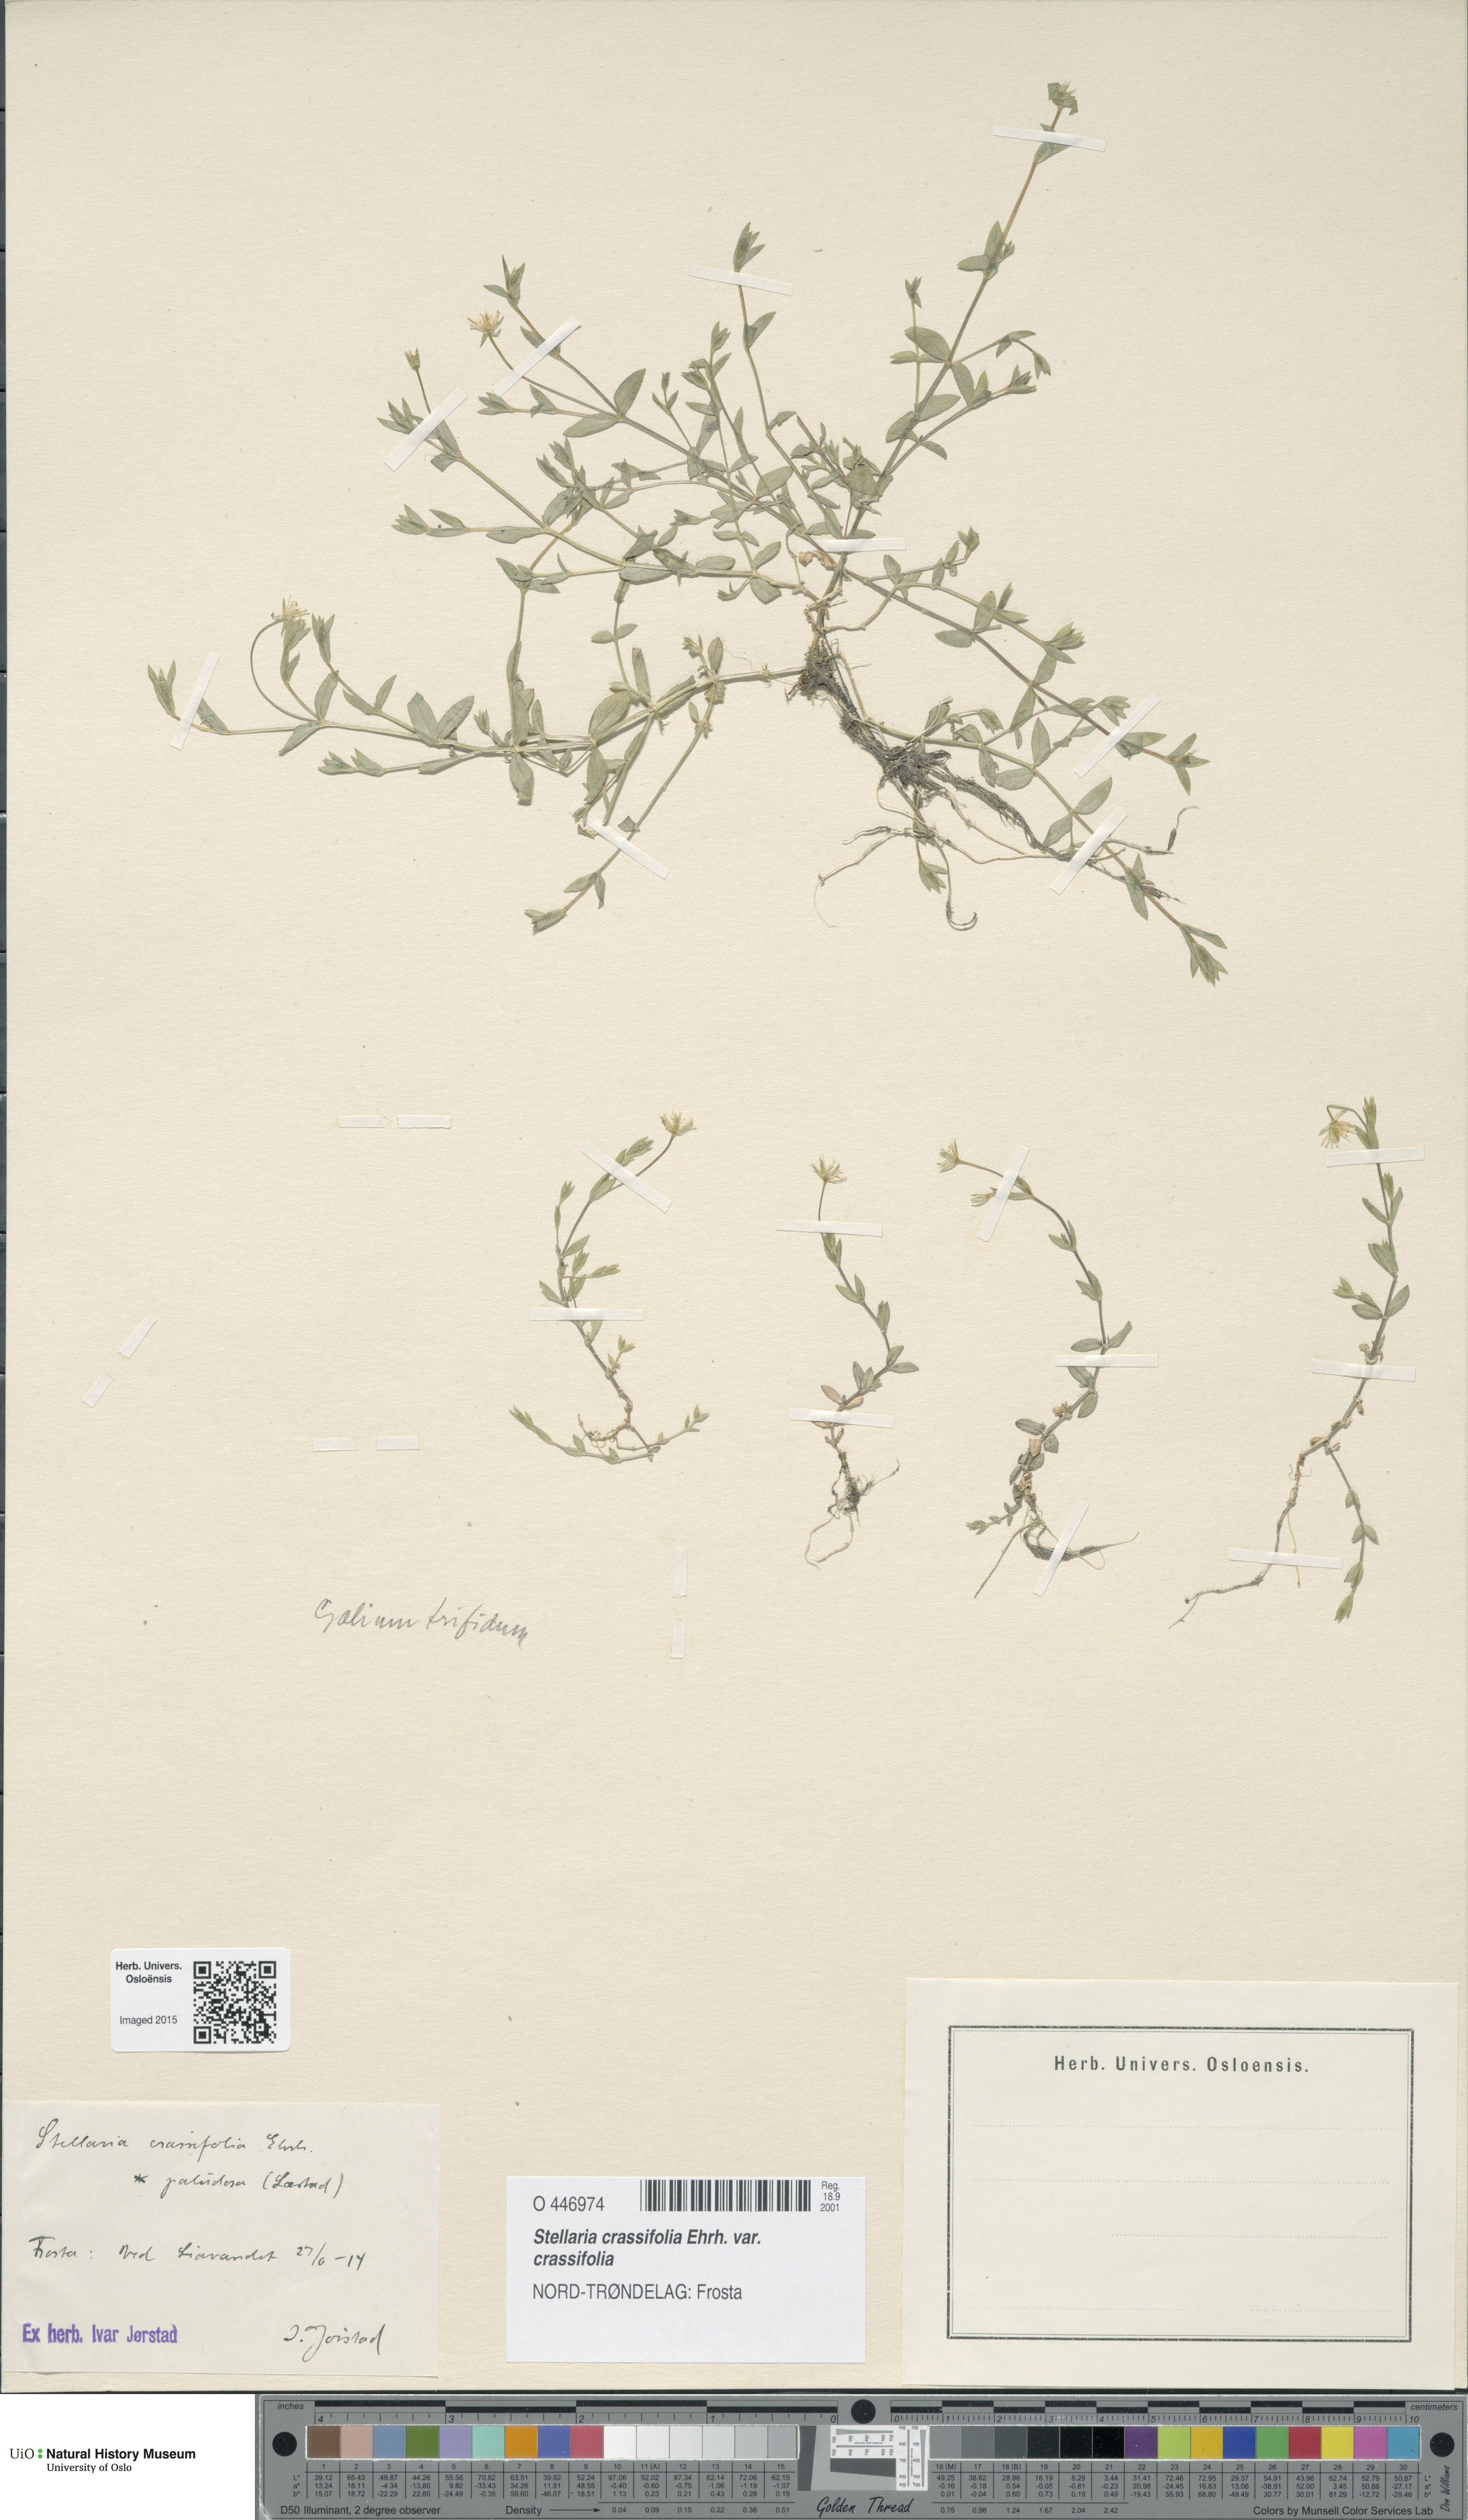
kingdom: Plantae
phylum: Tracheophyta
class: Magnoliopsida
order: Caryophyllales
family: Caryophyllaceae
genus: Stellaria
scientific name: Stellaria crassifolia
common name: Fleshy starwort
